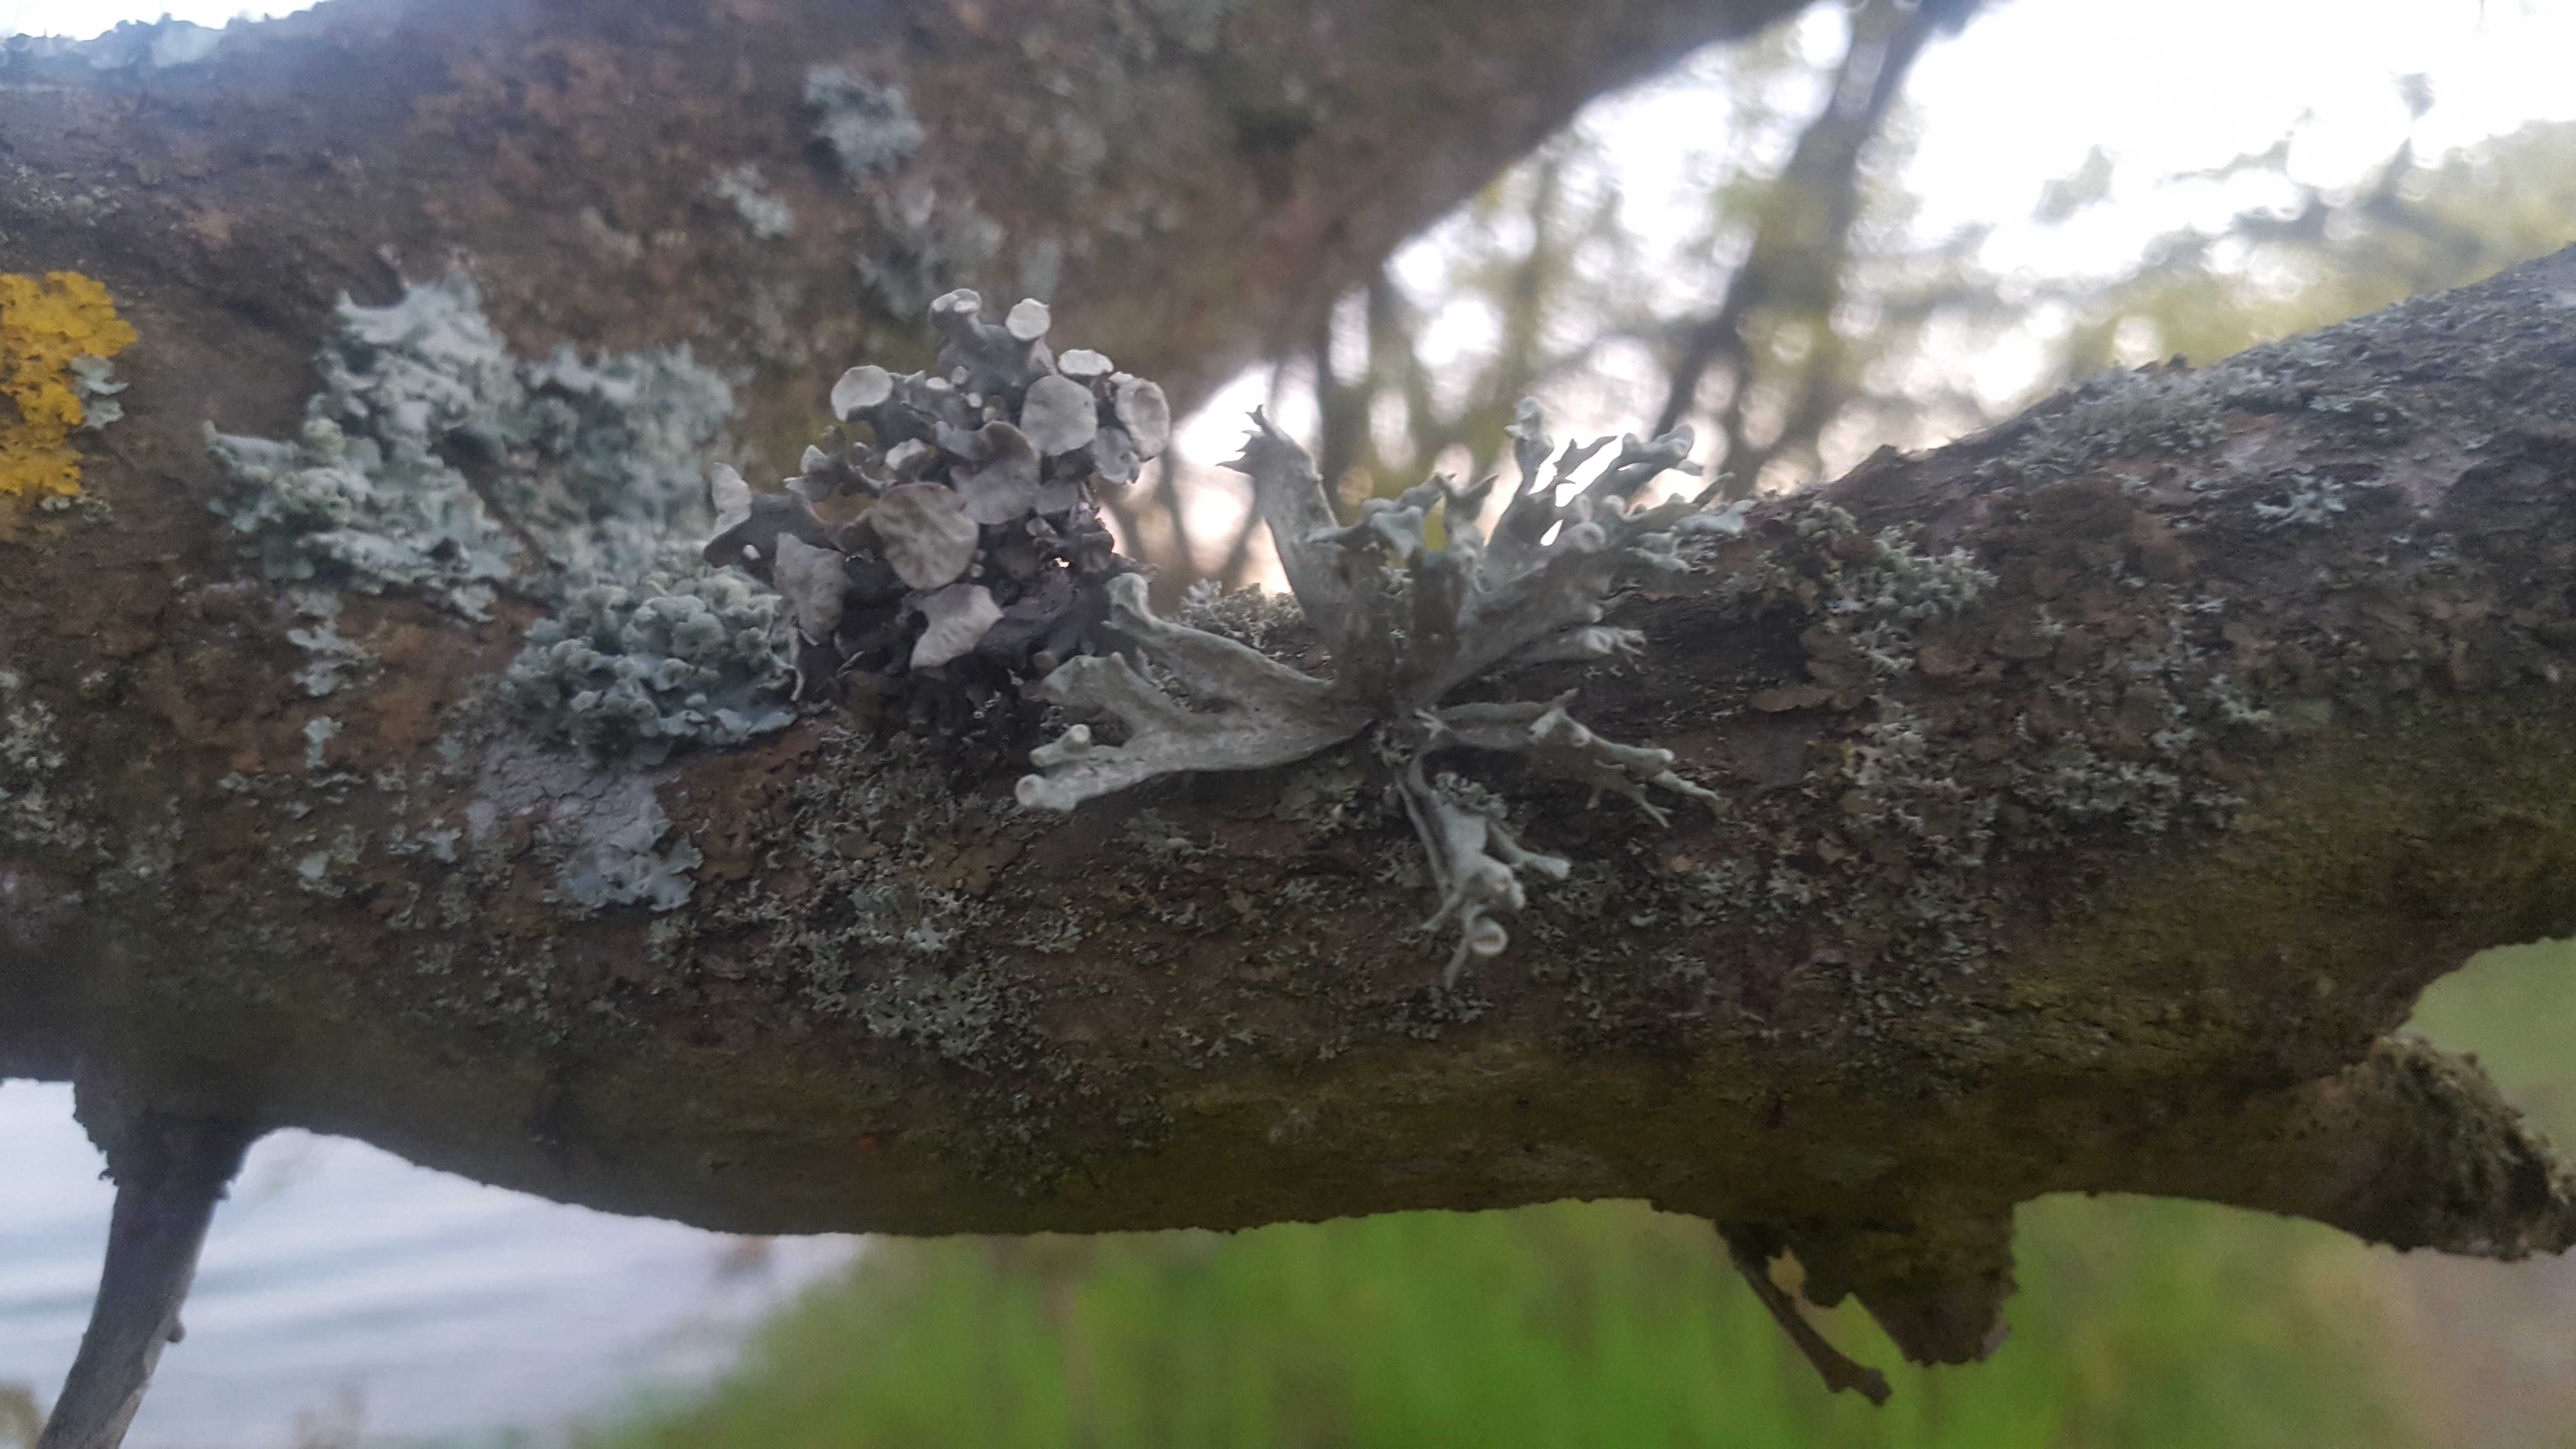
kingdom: Fungi
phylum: Ascomycota
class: Lecanoromycetes
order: Lecanorales
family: Ramalinaceae
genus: Ramalina
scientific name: Ramalina fastigiata
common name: tue-grenlav
